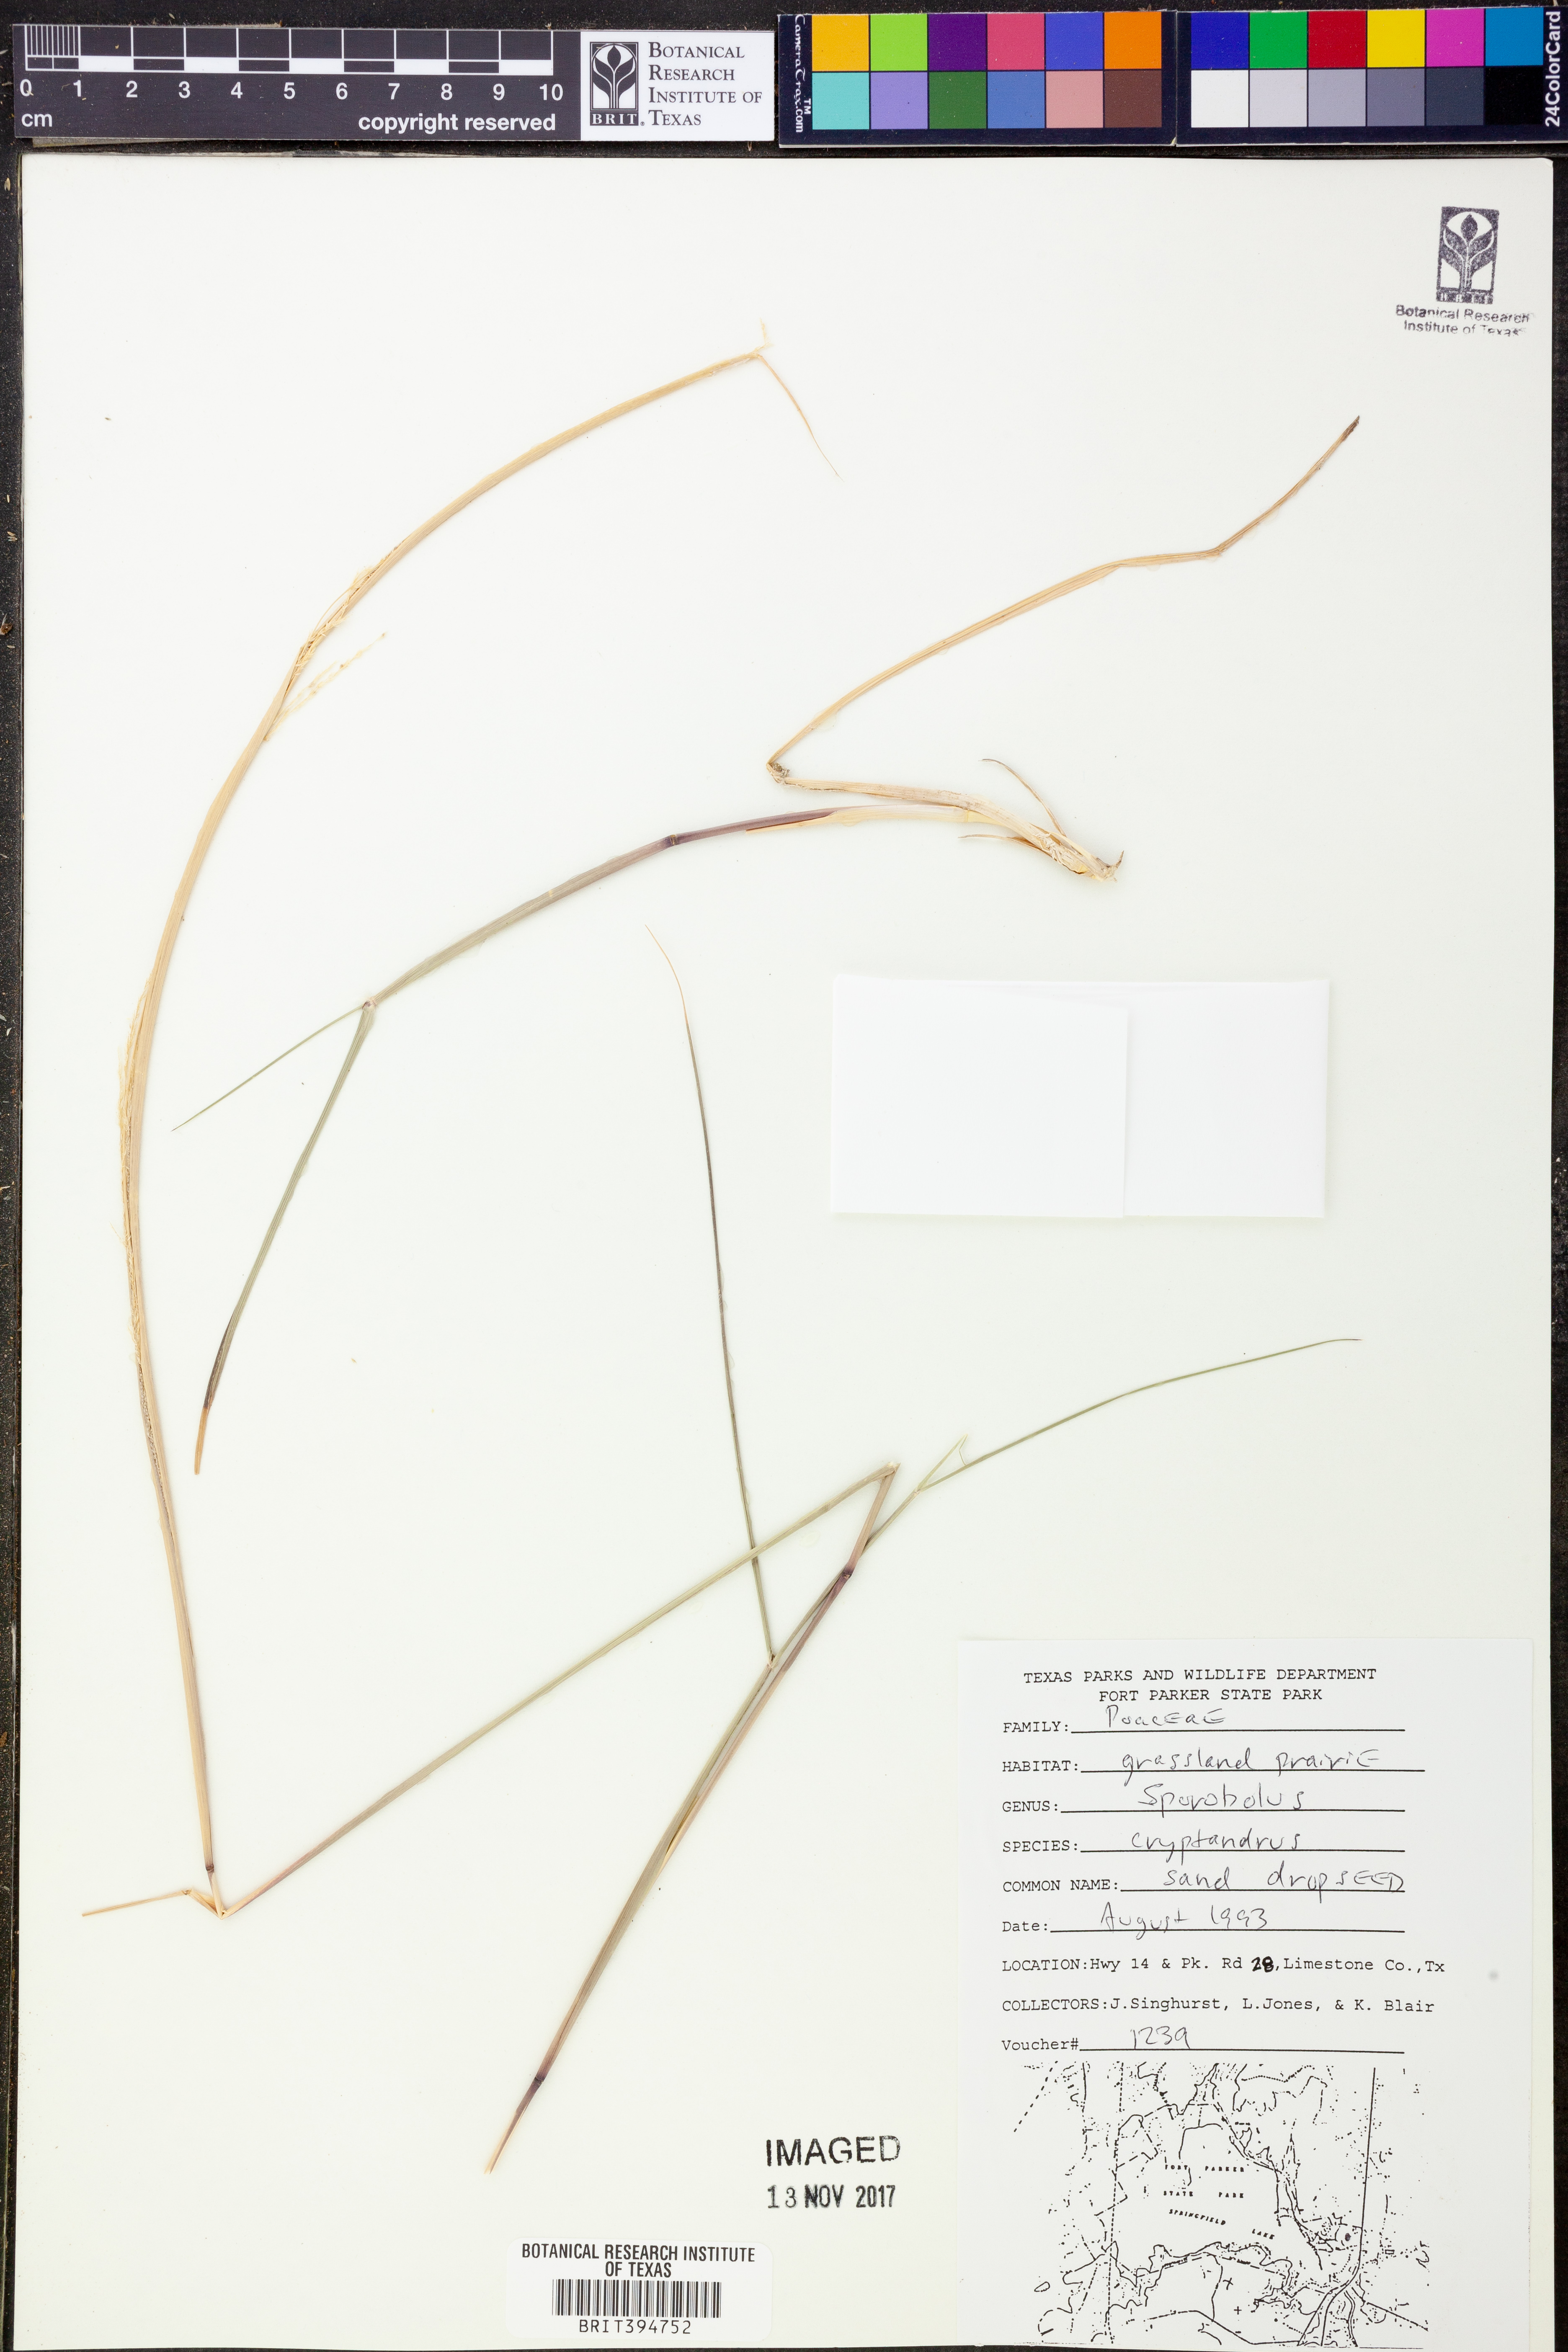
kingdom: Plantae
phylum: Tracheophyta
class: Liliopsida
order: Poales
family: Poaceae
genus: Sporobolus
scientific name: Sporobolus cryptandrus
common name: Sand dropseed
